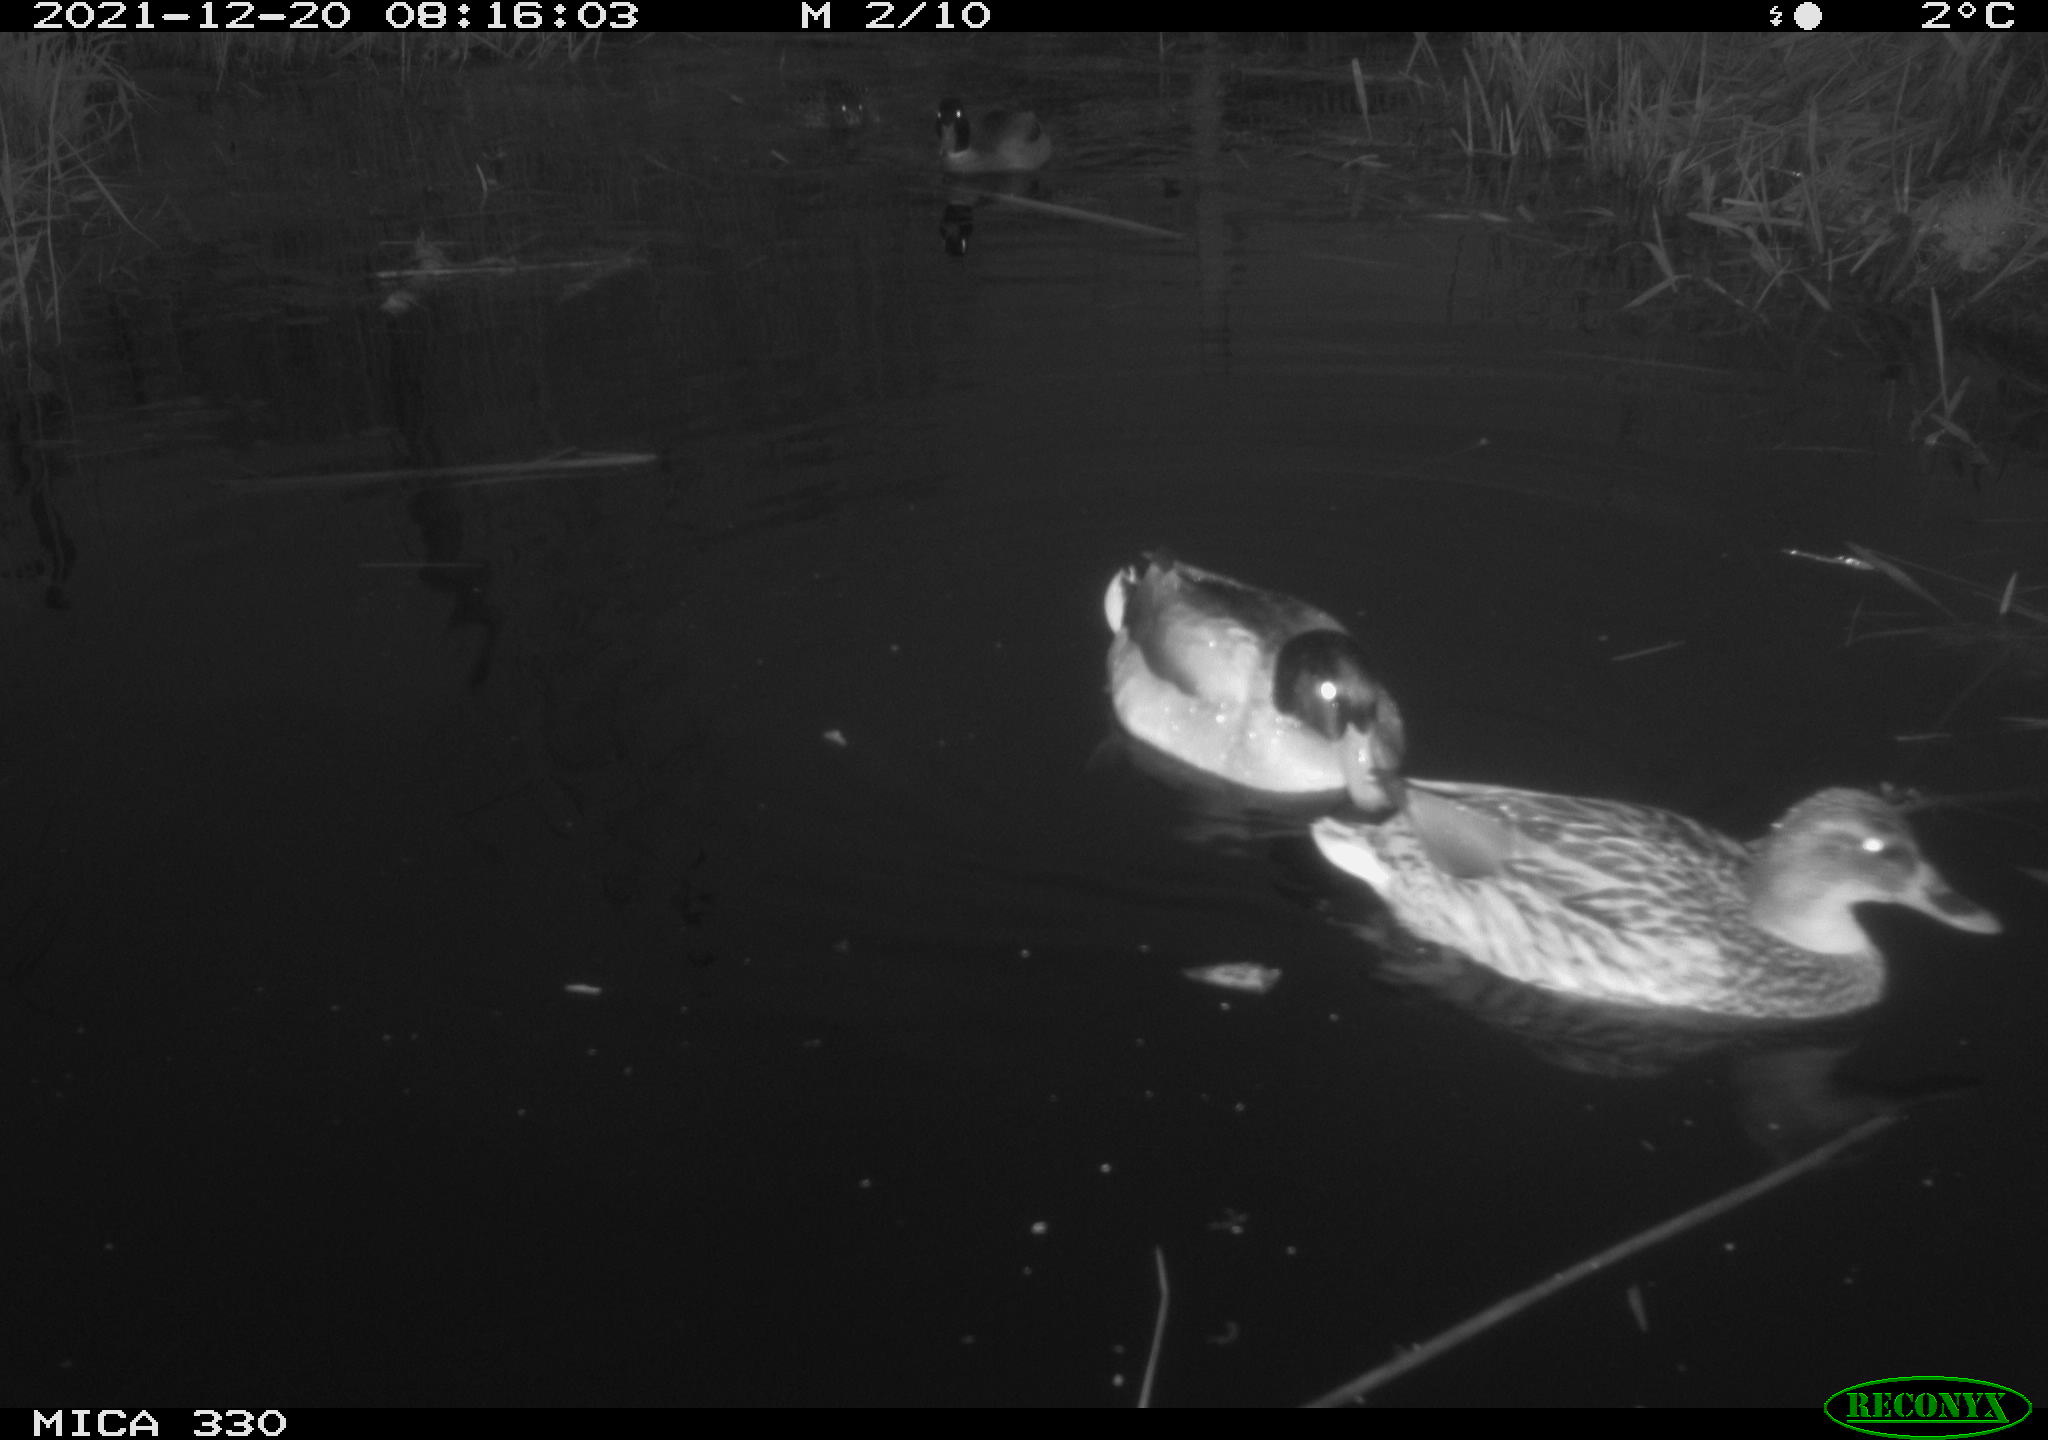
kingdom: Animalia
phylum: Chordata
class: Aves
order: Anseriformes
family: Anatidae
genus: Anas
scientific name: Anas platyrhynchos
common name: Mallard
